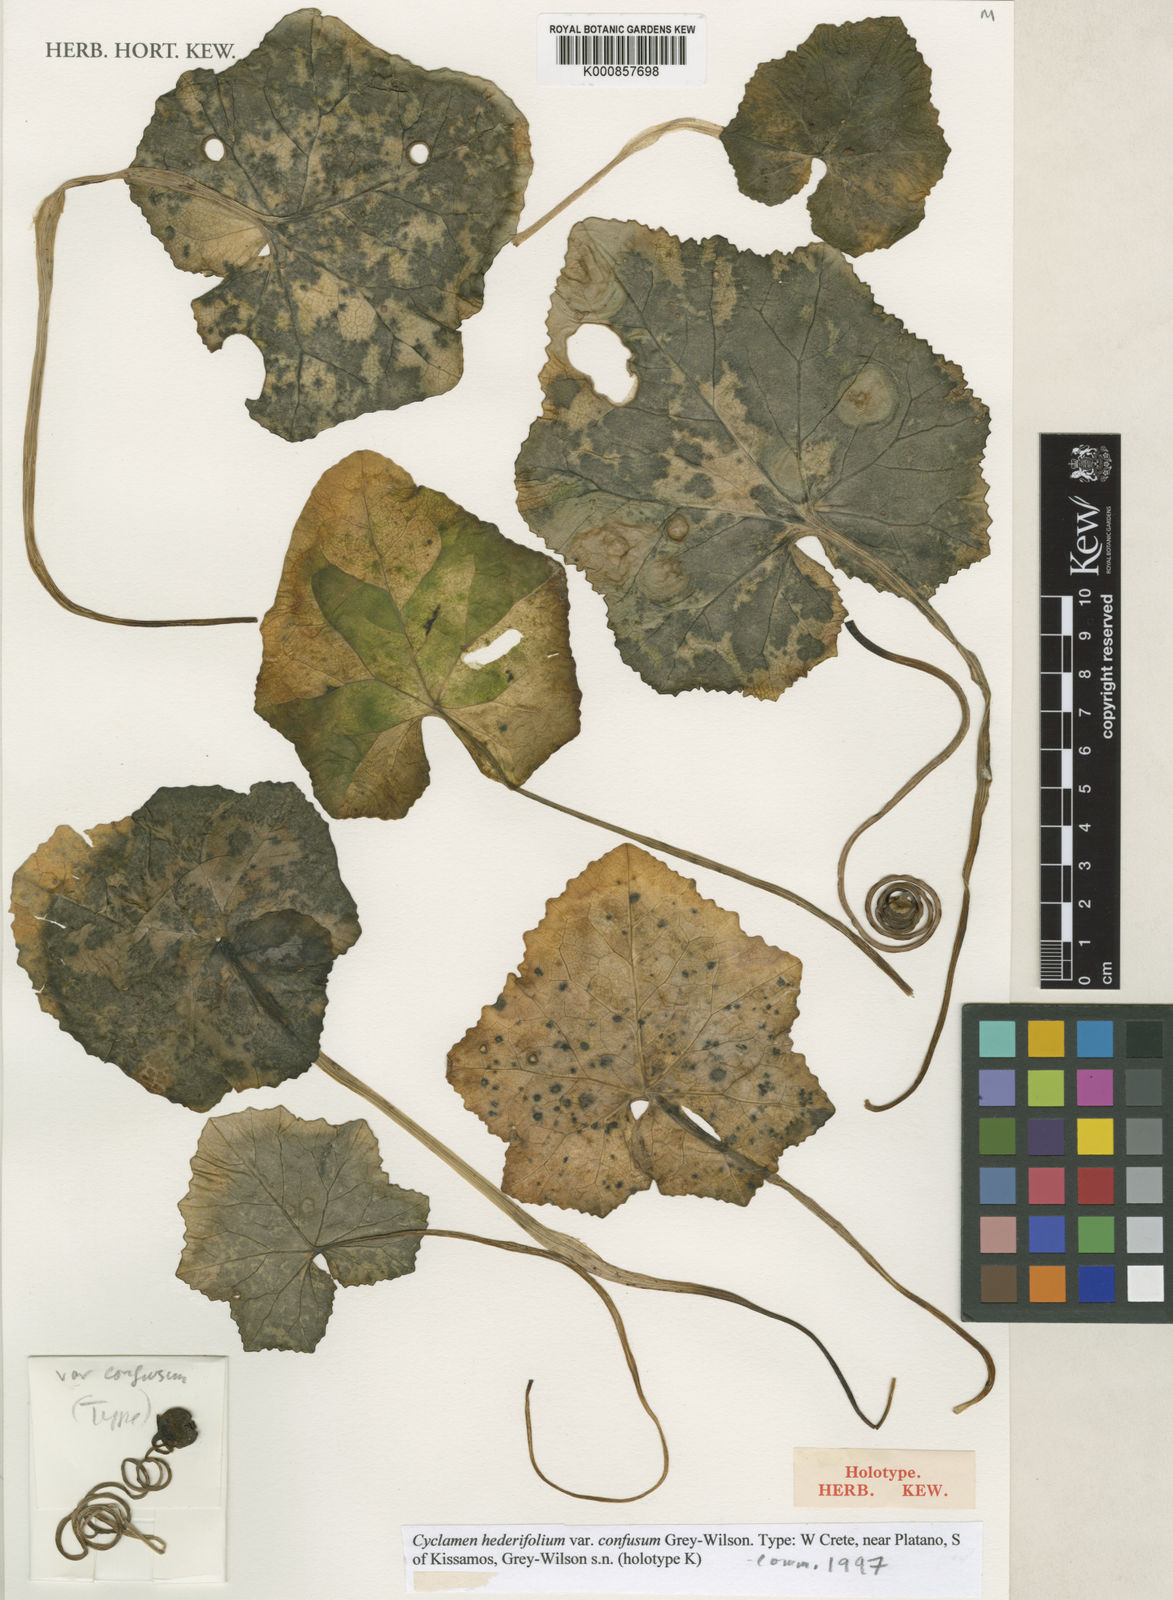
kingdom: Plantae
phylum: Tracheophyta
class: Magnoliopsida
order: Ericales
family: Primulaceae
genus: Cyclamen
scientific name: Cyclamen hederifolium
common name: Sowbread
